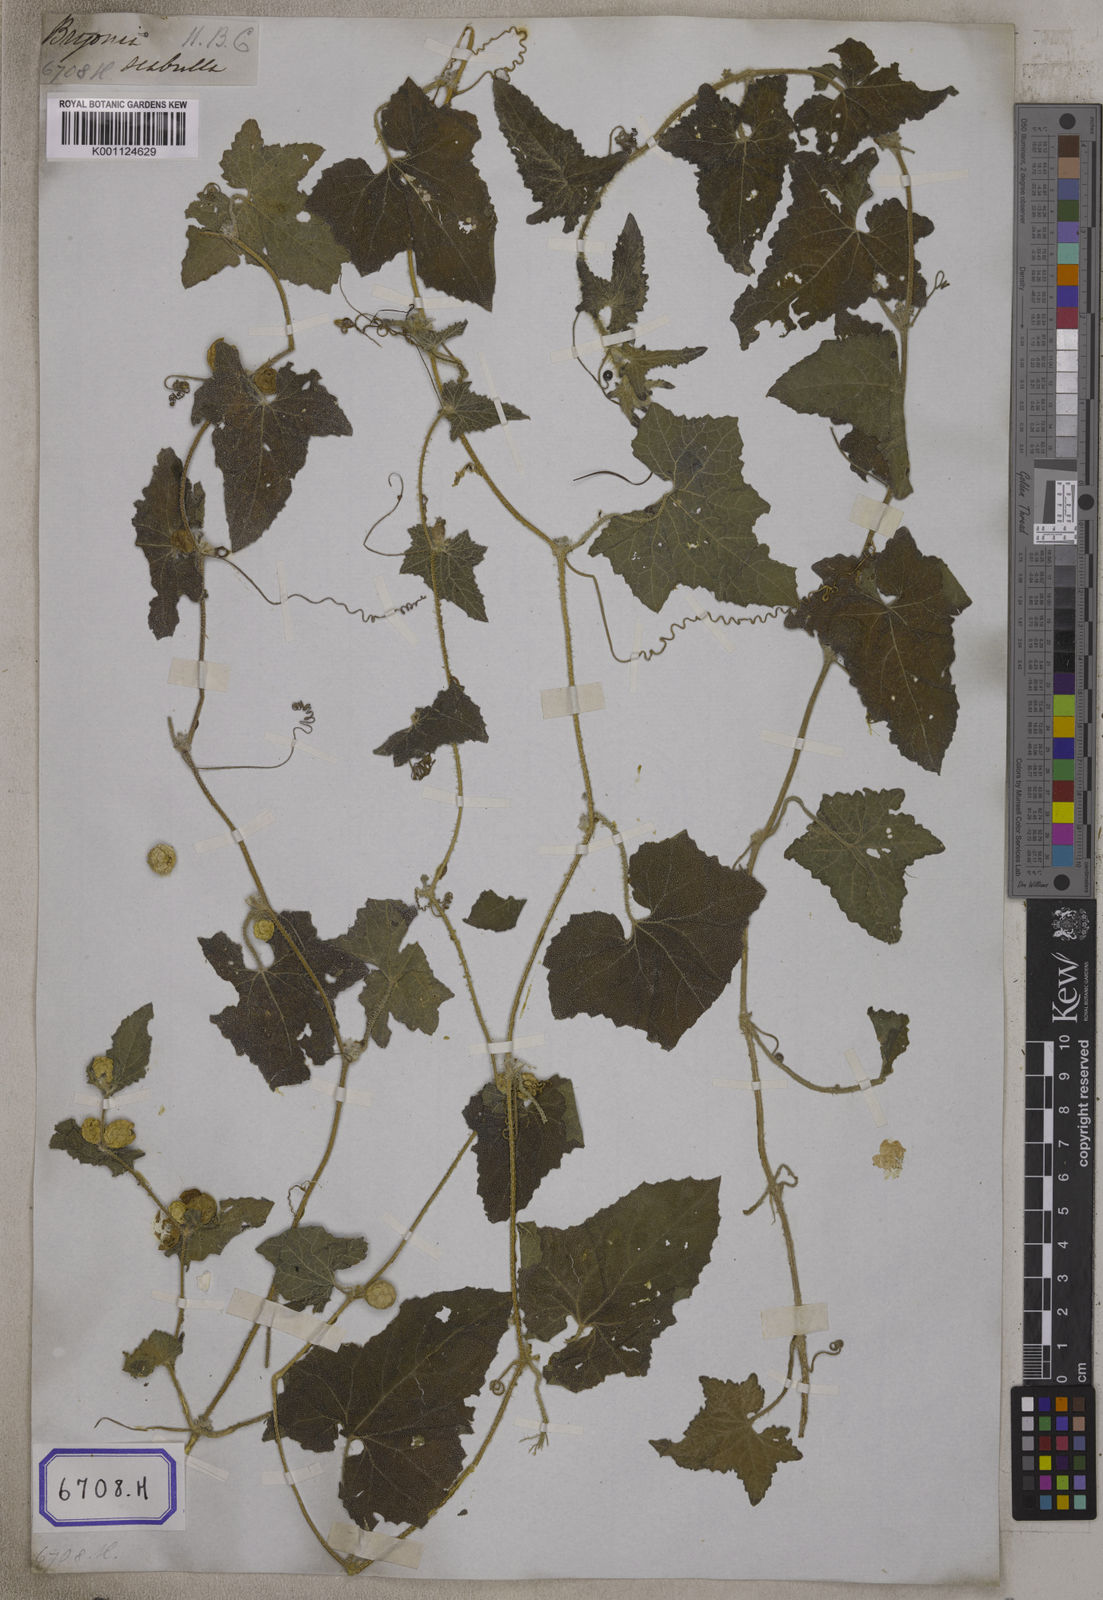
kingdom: Plantae
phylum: Tracheophyta
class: Magnoliopsida
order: Cucurbitales
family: Cucurbitaceae
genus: Bryonia
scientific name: Bryonia
